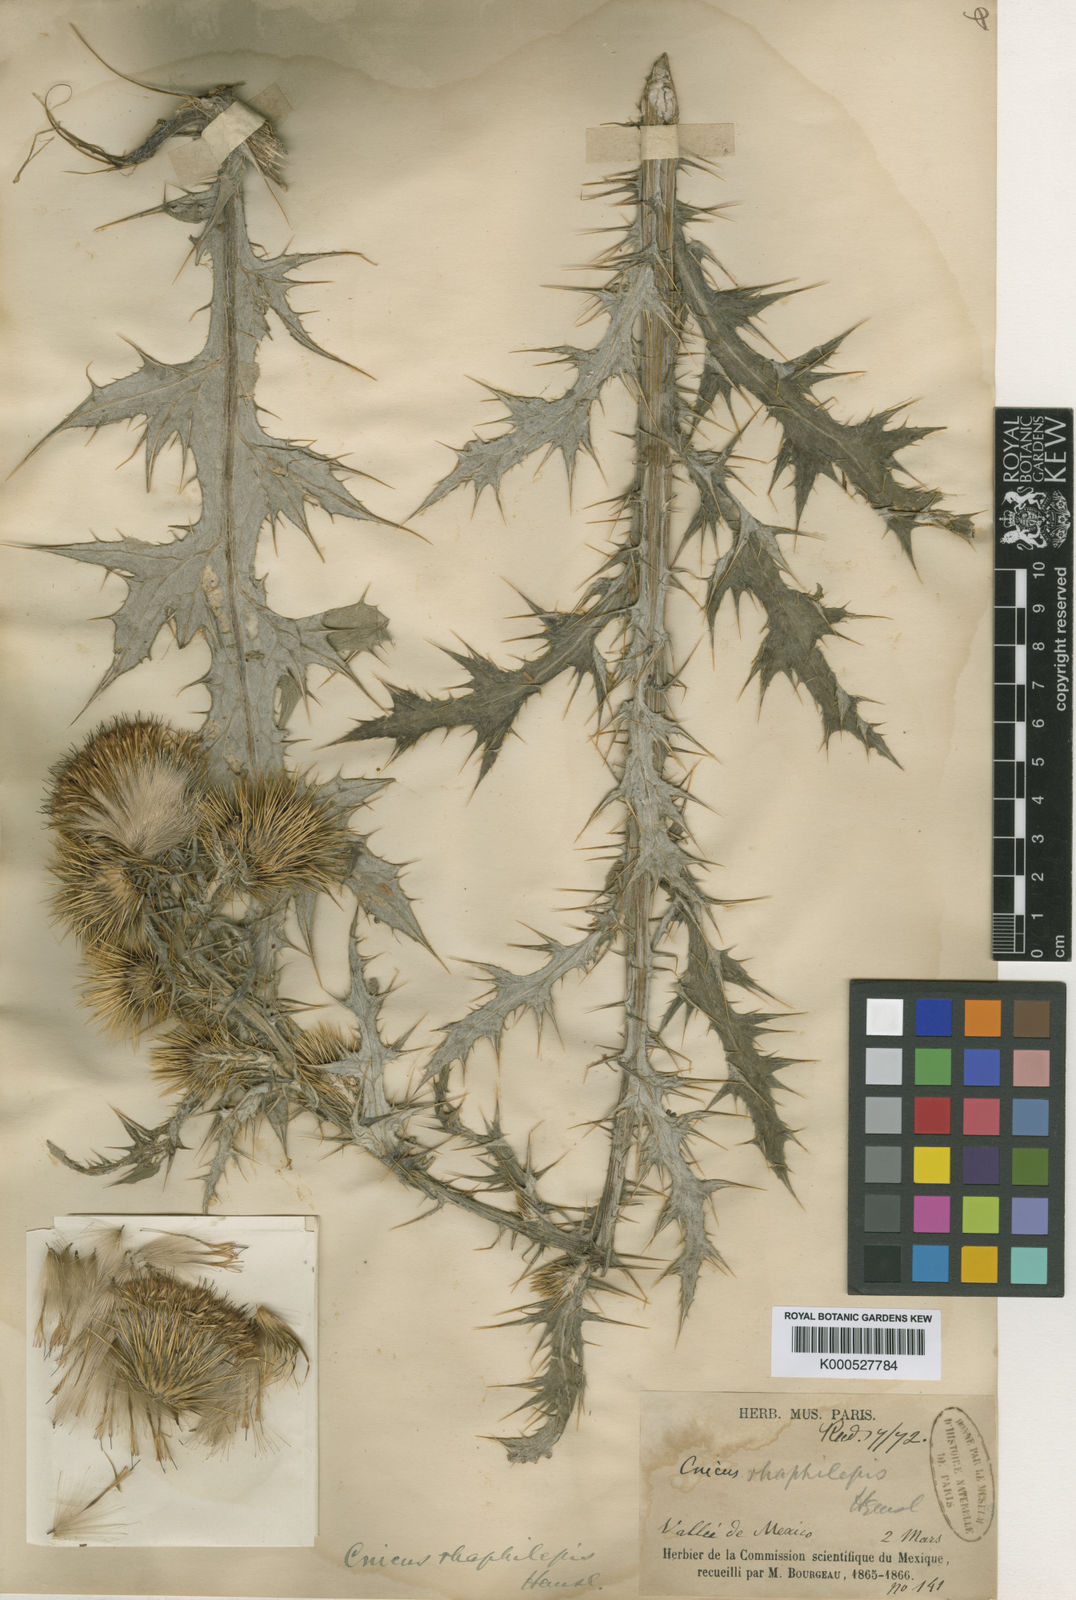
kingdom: Plantae
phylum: Tracheophyta
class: Magnoliopsida
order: Asterales
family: Asteraceae
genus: Cirsium
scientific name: Cirsium rhaphilepis
